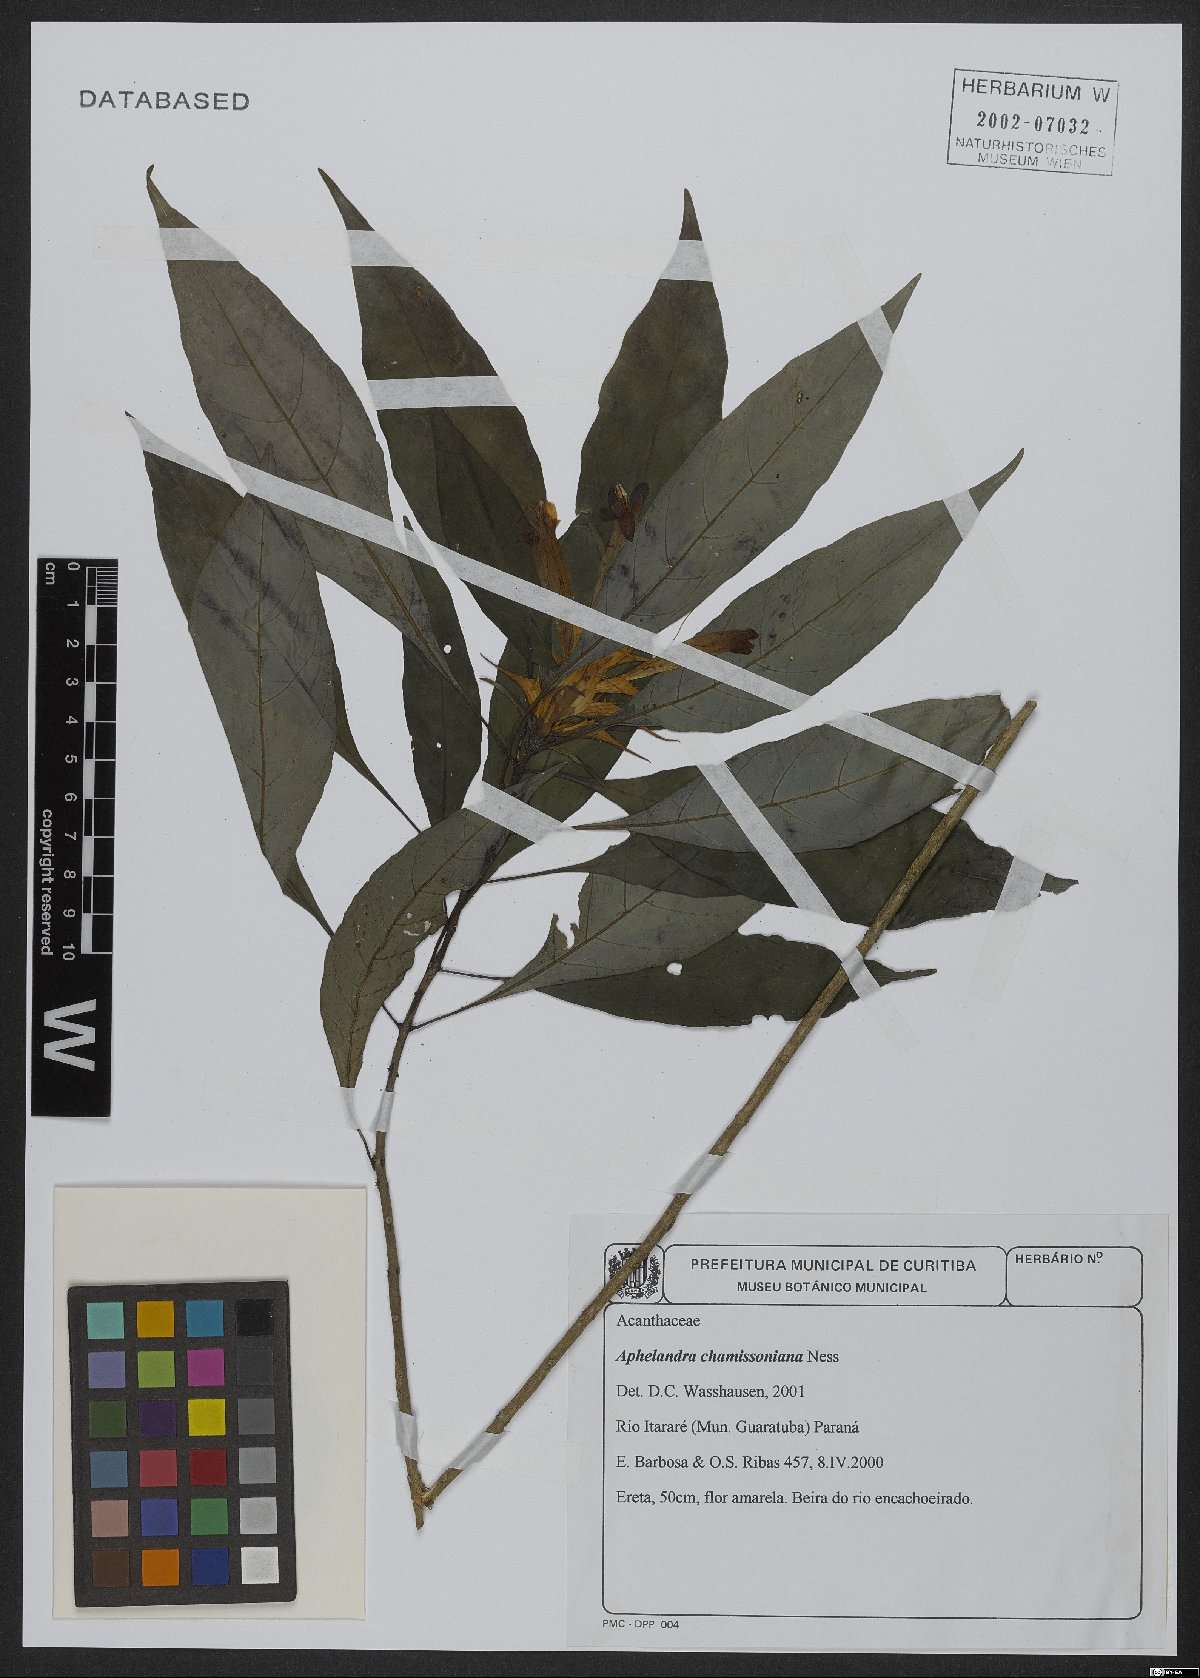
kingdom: Plantae
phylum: Tracheophyta
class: Magnoliopsida
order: Lamiales
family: Acanthaceae
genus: Aphelandra
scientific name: Aphelandra chamissoniana
